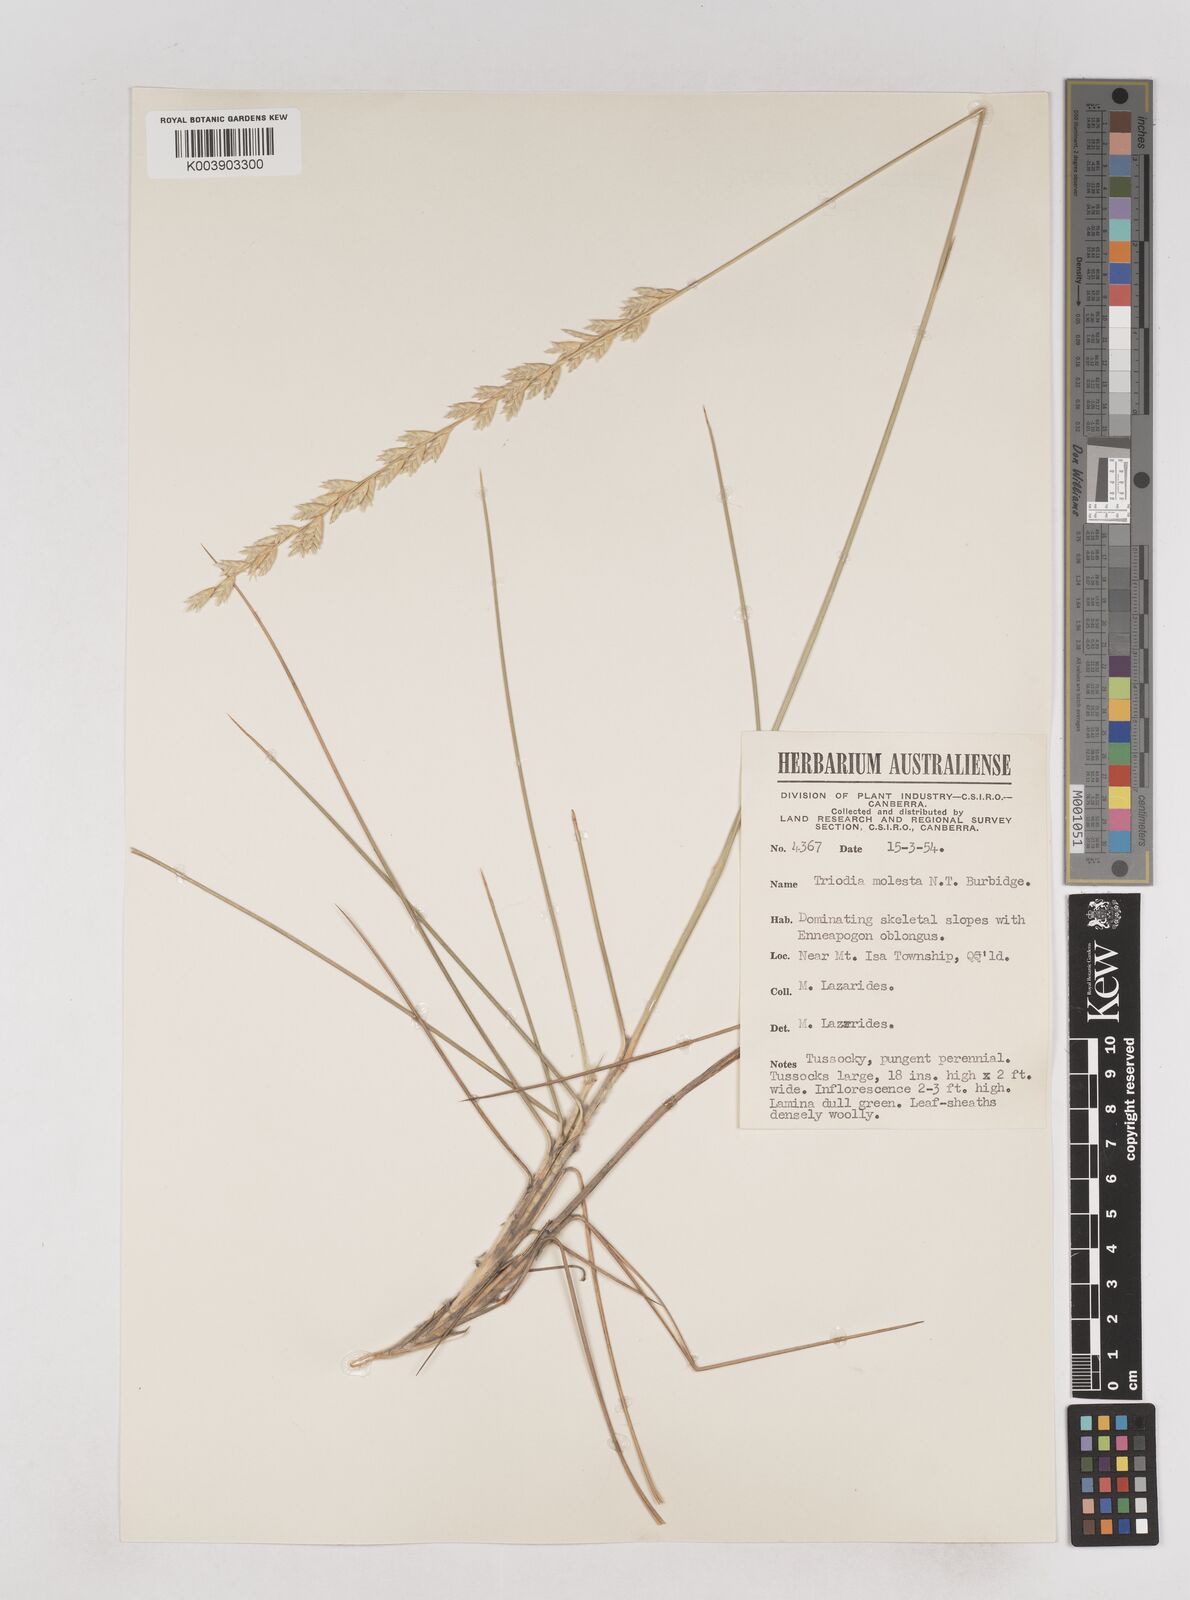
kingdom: Plantae
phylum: Tracheophyta
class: Liliopsida
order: Poales
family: Poaceae
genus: Triodia
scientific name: Triodia molesta
